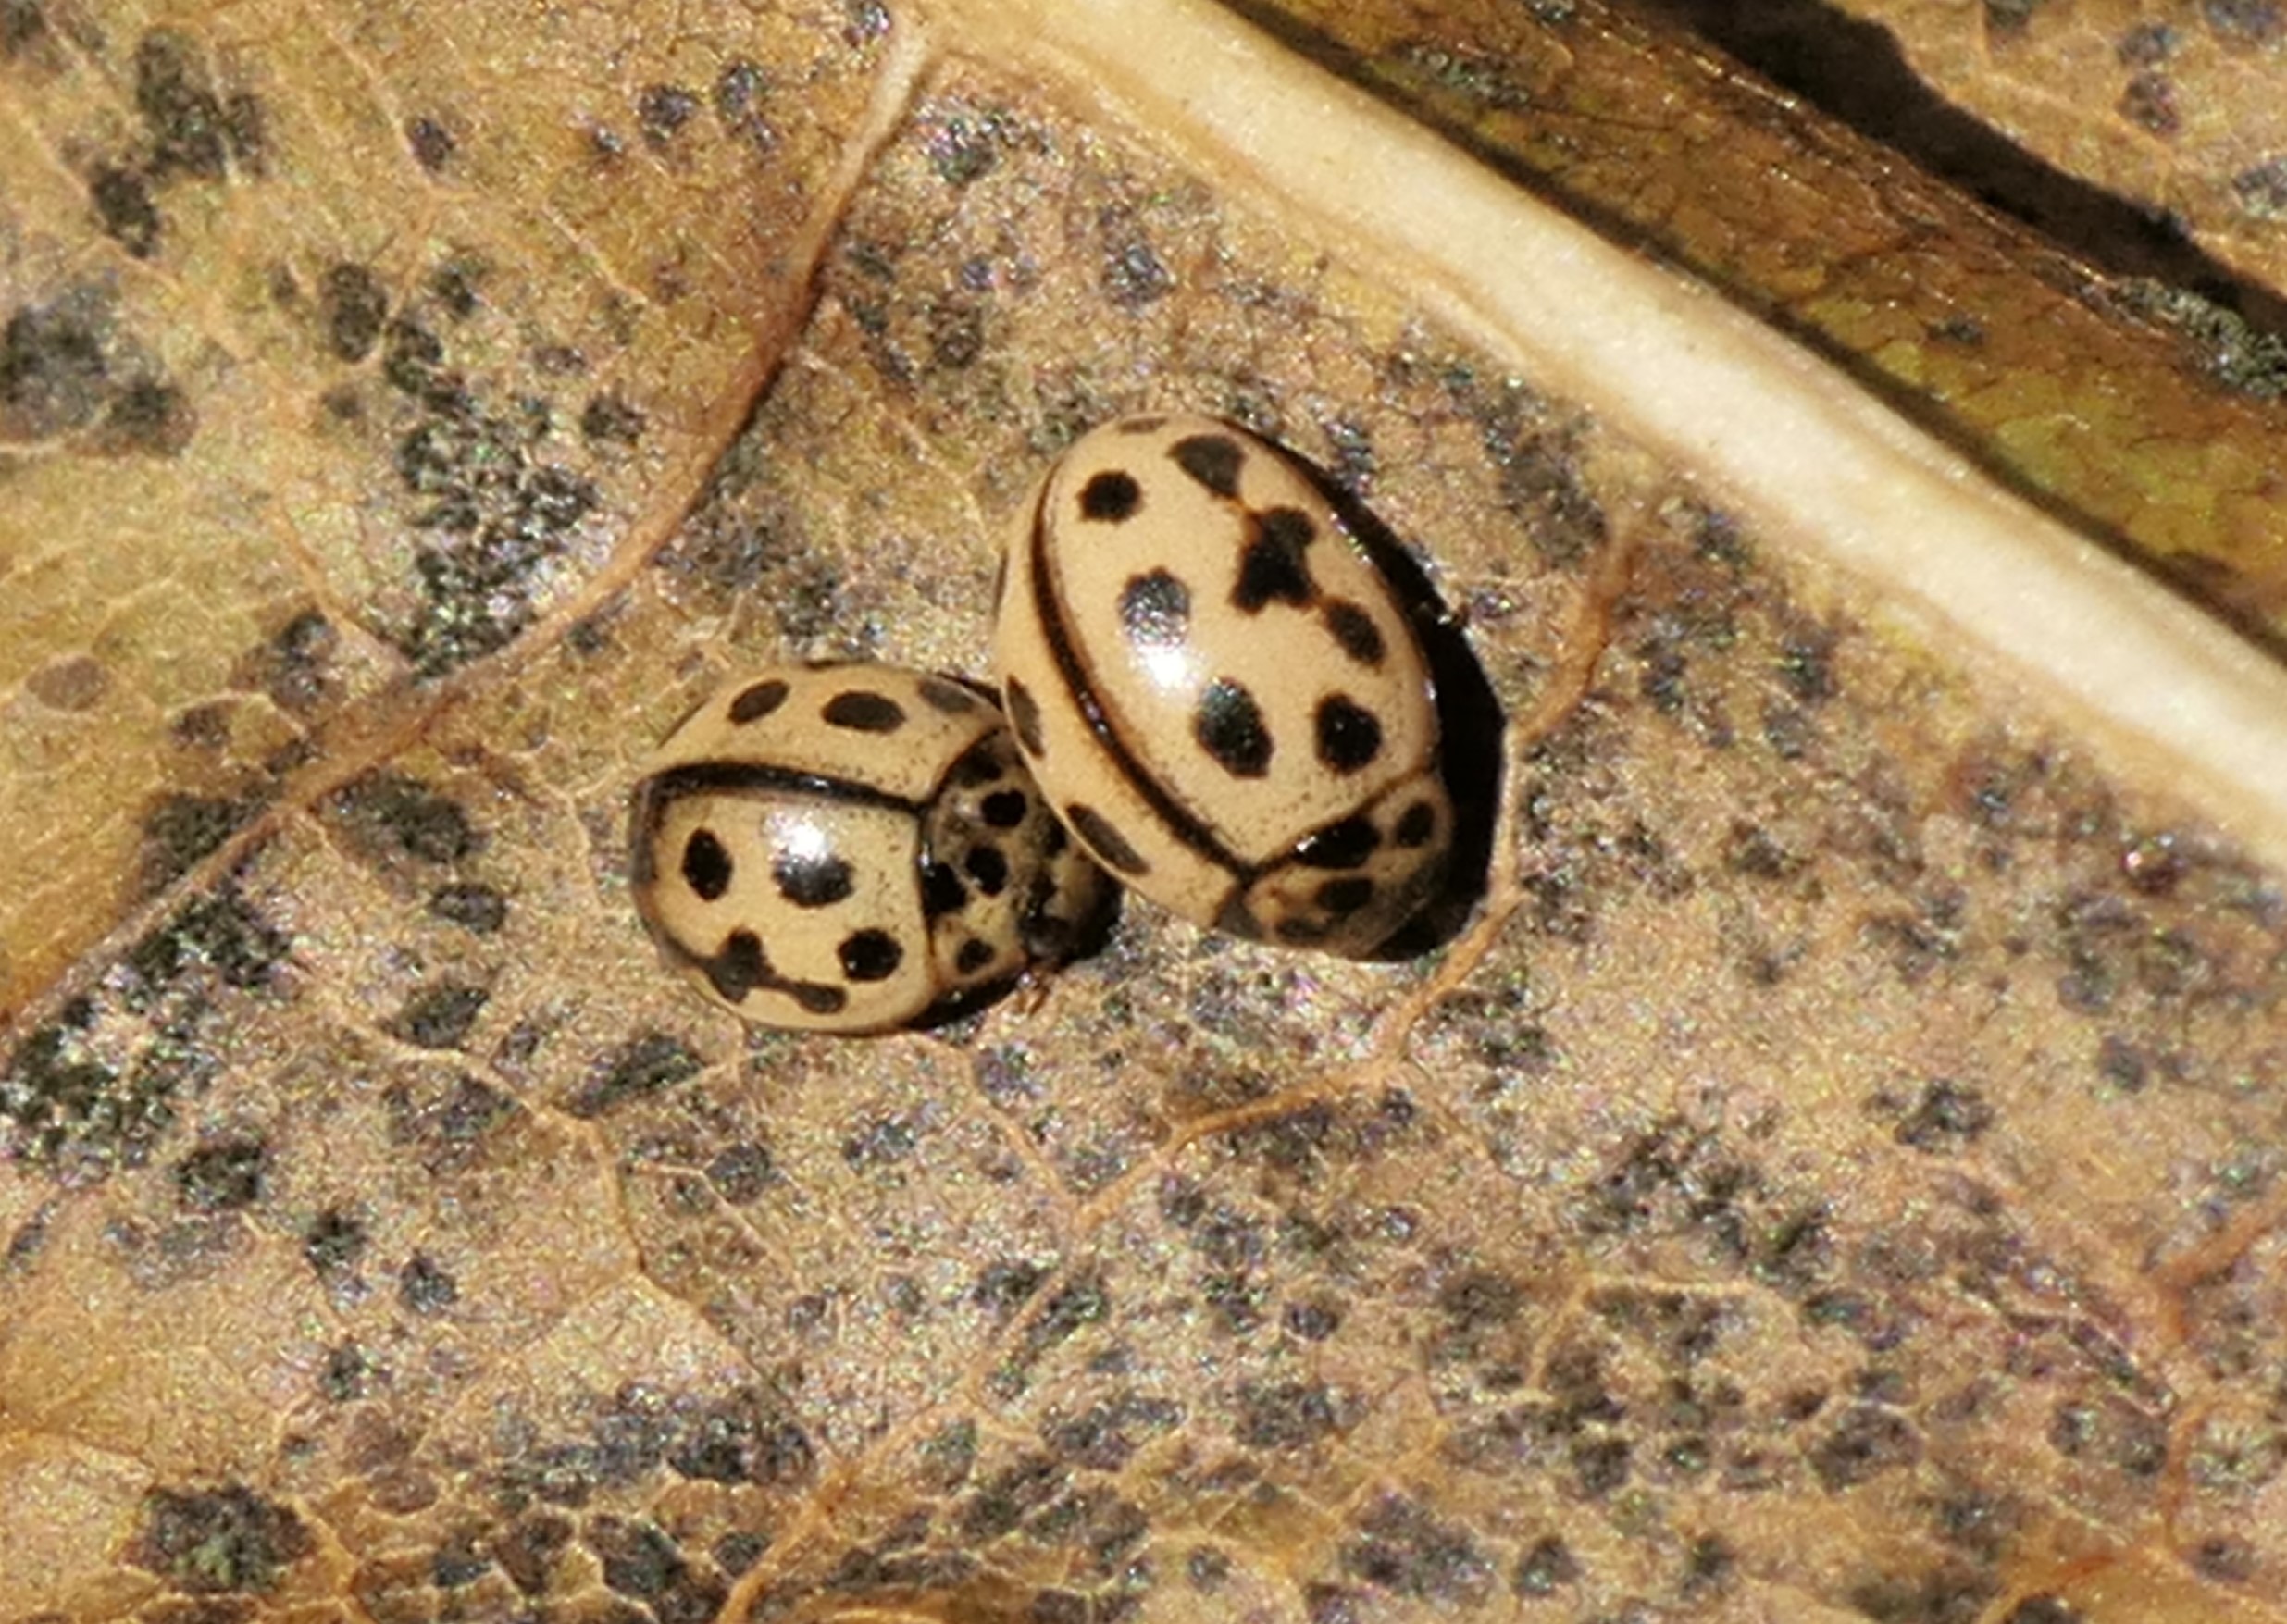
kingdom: Animalia
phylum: Arthropoda
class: Insecta
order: Coleoptera
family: Coccinellidae
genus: Tytthaspis
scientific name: Tytthaspis sedecimpunctata
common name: Sekstenprikket mariehøne
